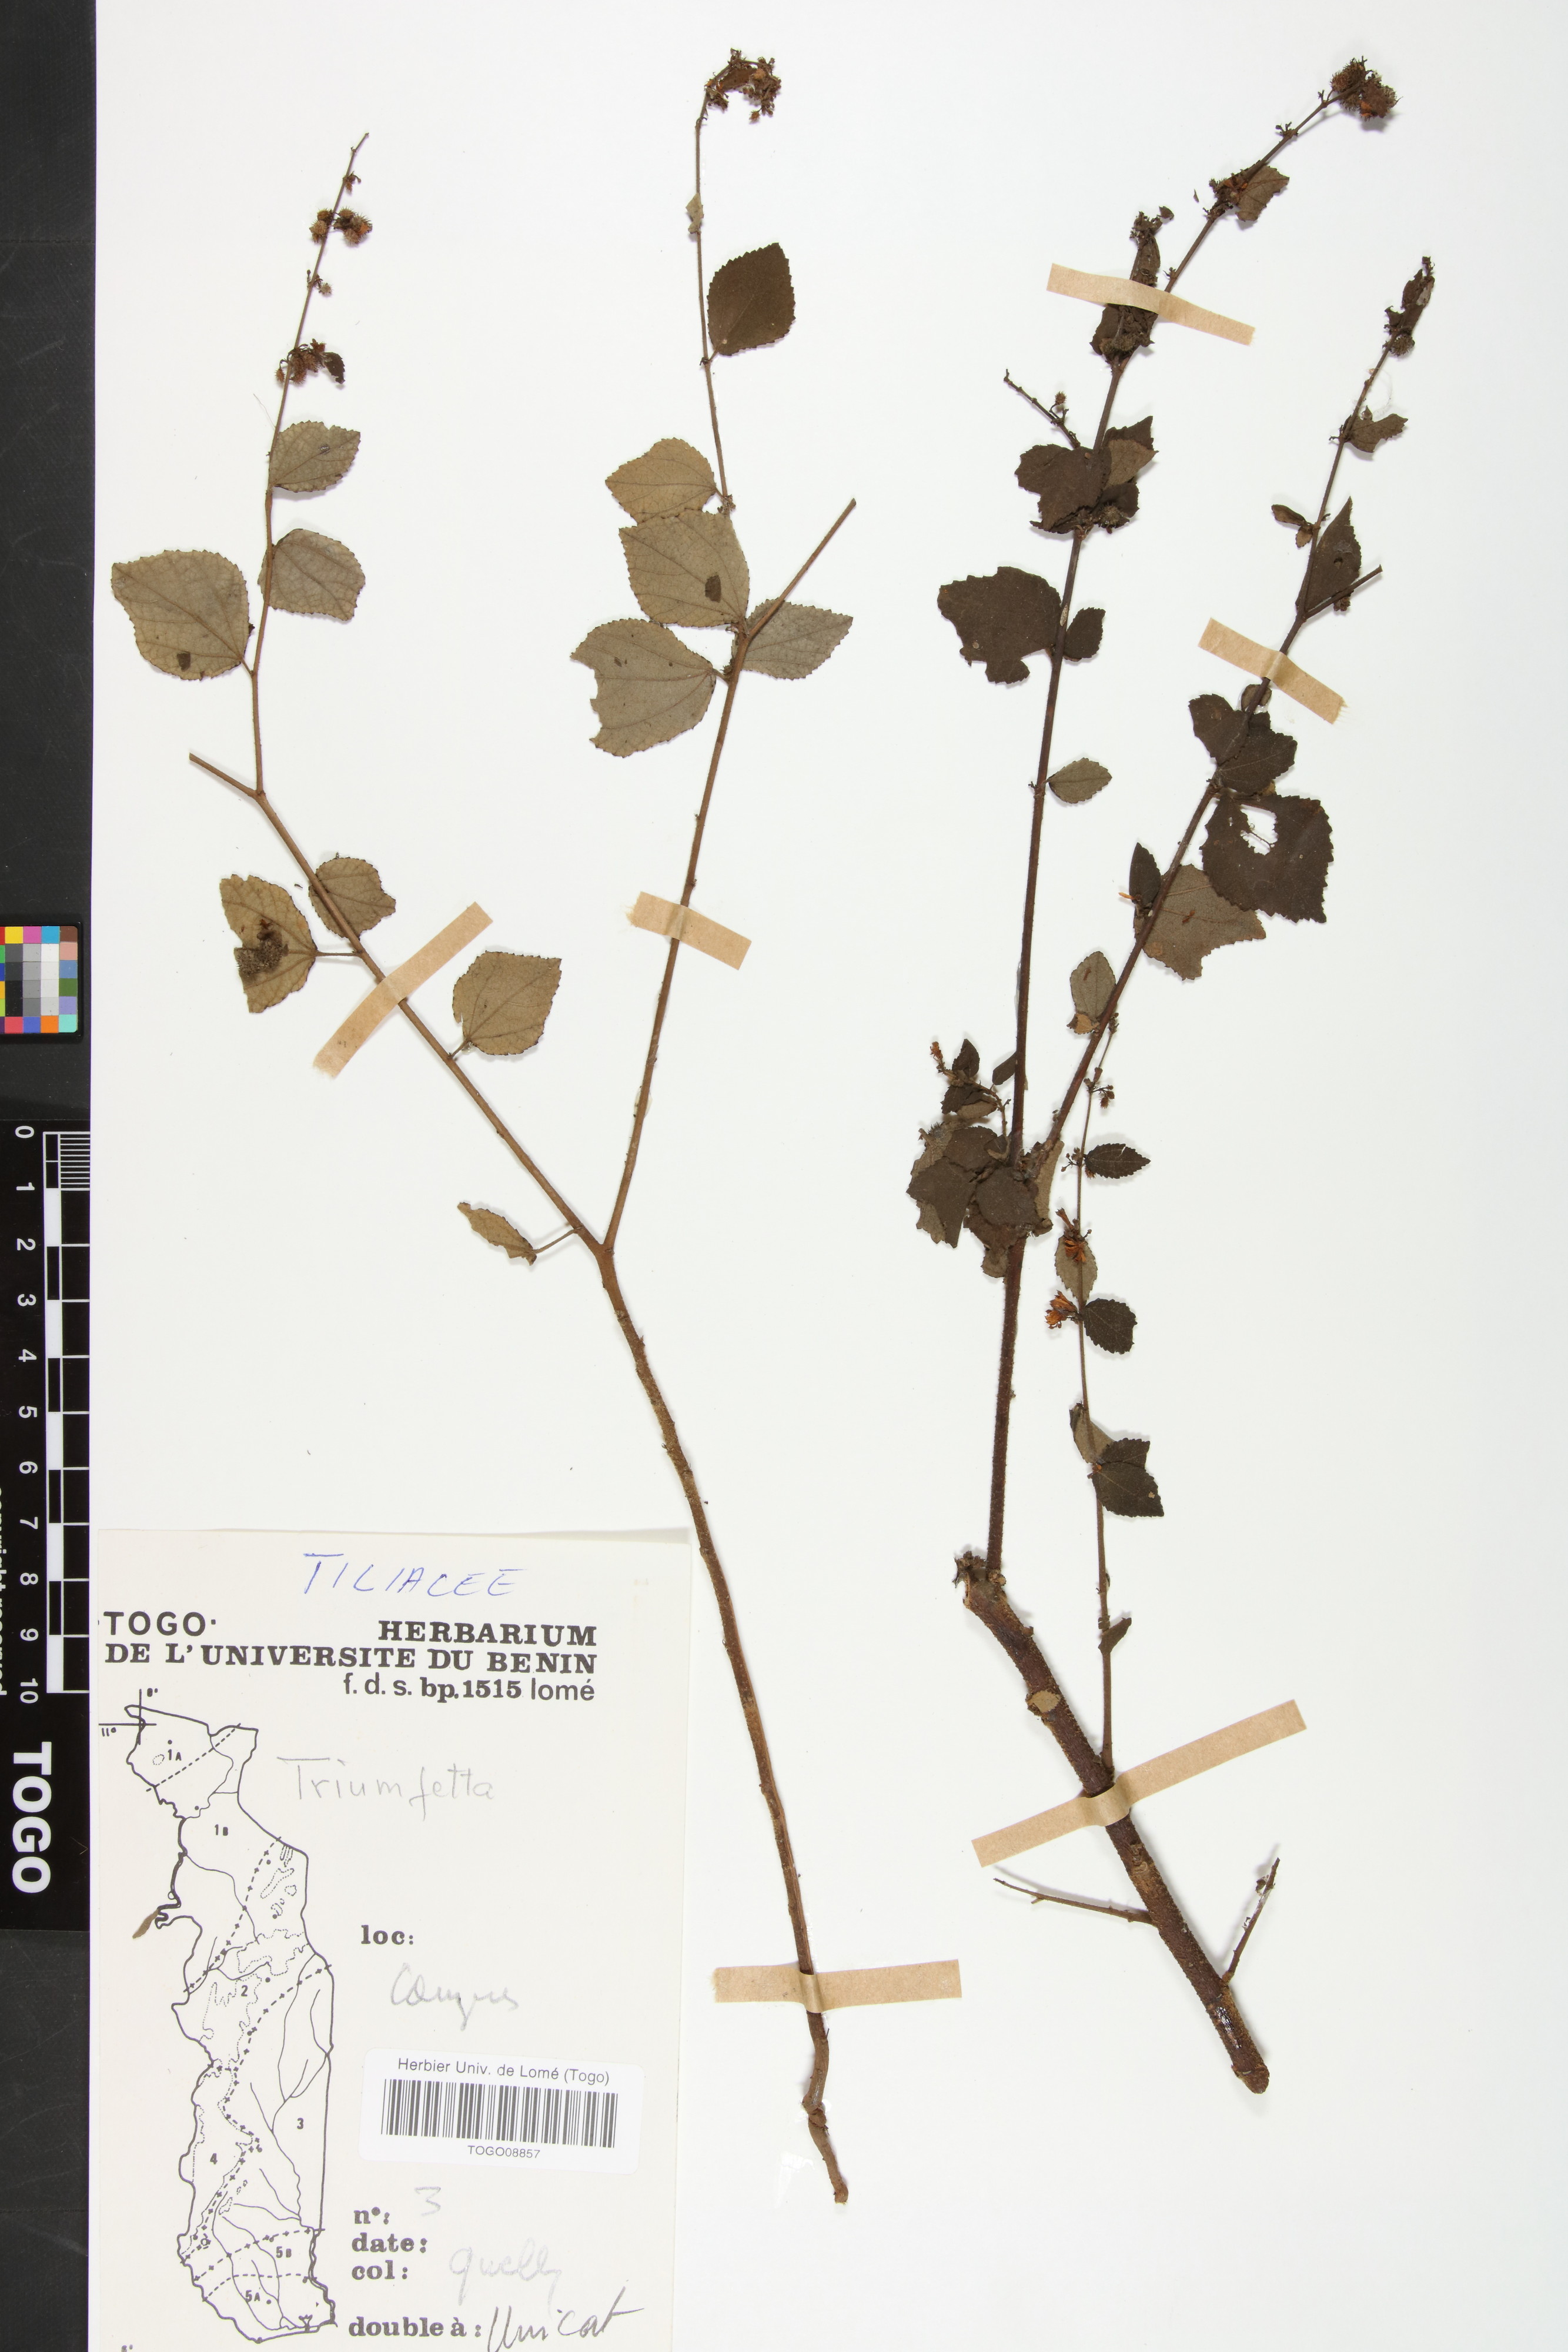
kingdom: Plantae
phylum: Tracheophyta
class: Magnoliopsida
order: Malvales
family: Malvaceae
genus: Triumfetta
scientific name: Triumfetta rhomboidea
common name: Diamond burbark
